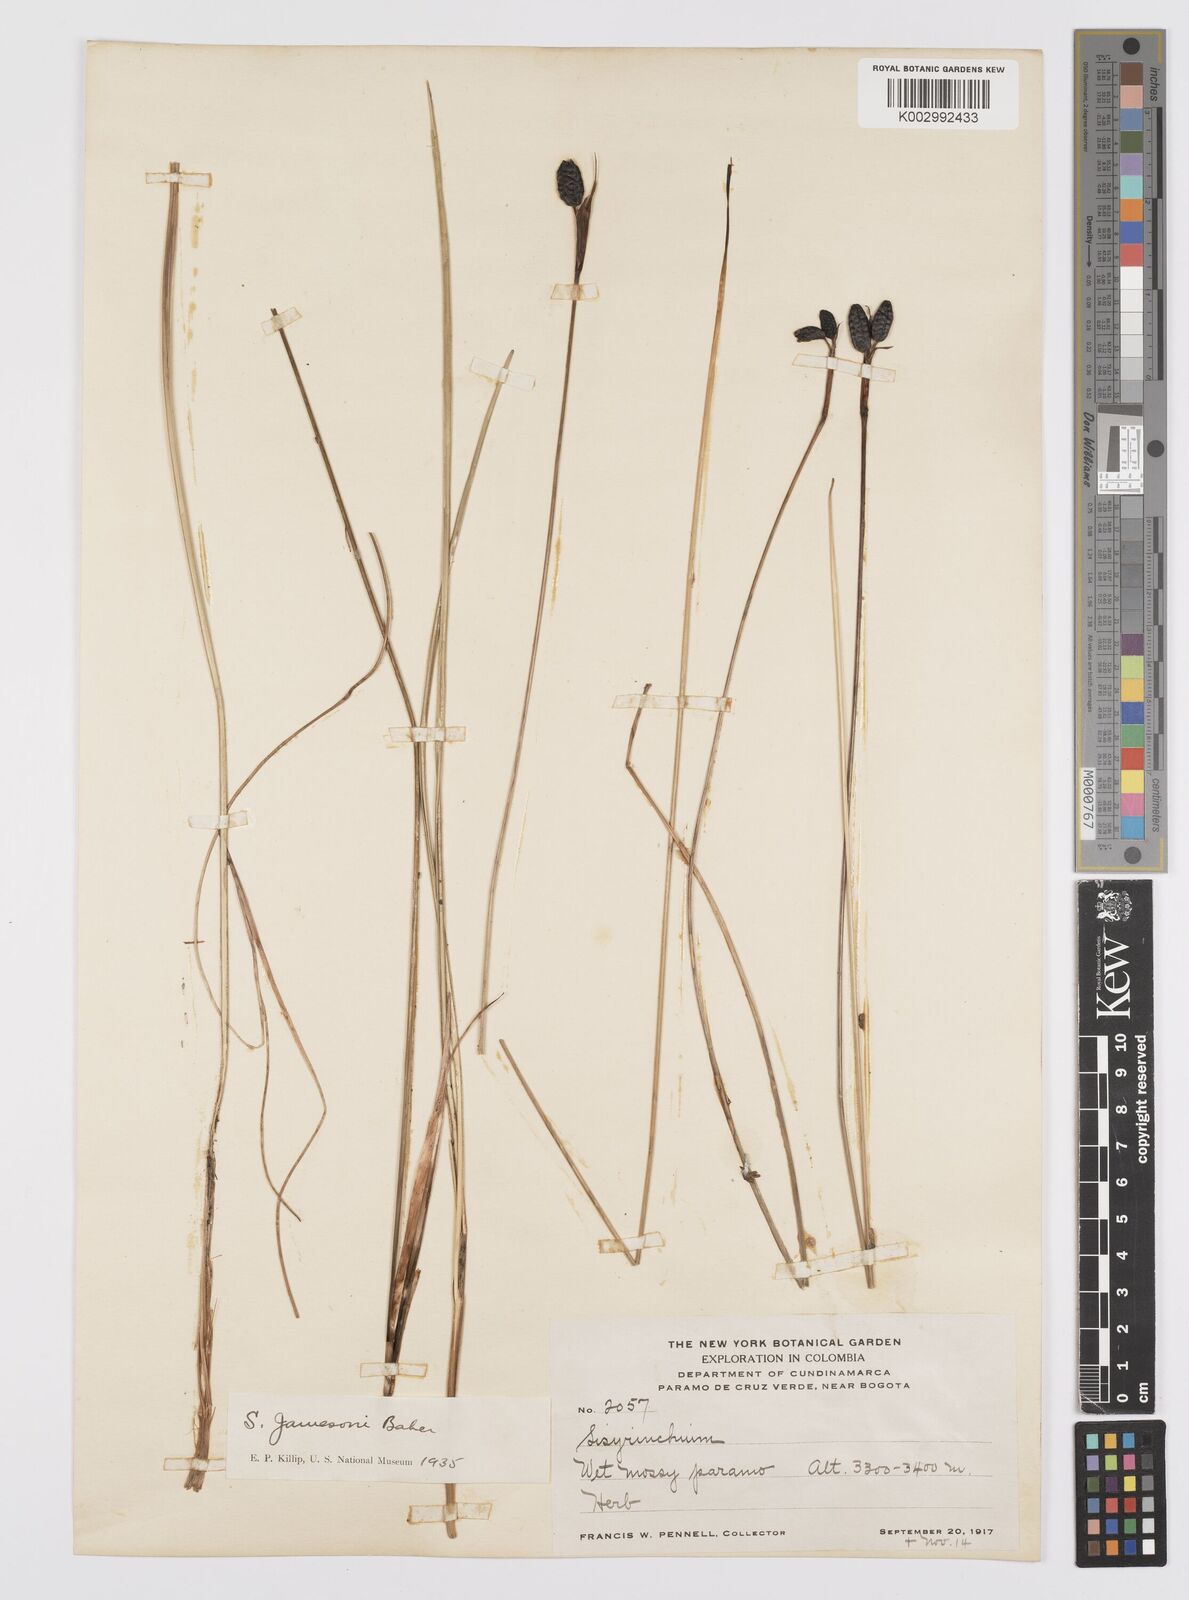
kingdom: Plantae
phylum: Tracheophyta
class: Liliopsida
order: Asparagales
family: Iridaceae
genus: Sisyrinchium
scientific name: Sisyrinchium jamesonii
